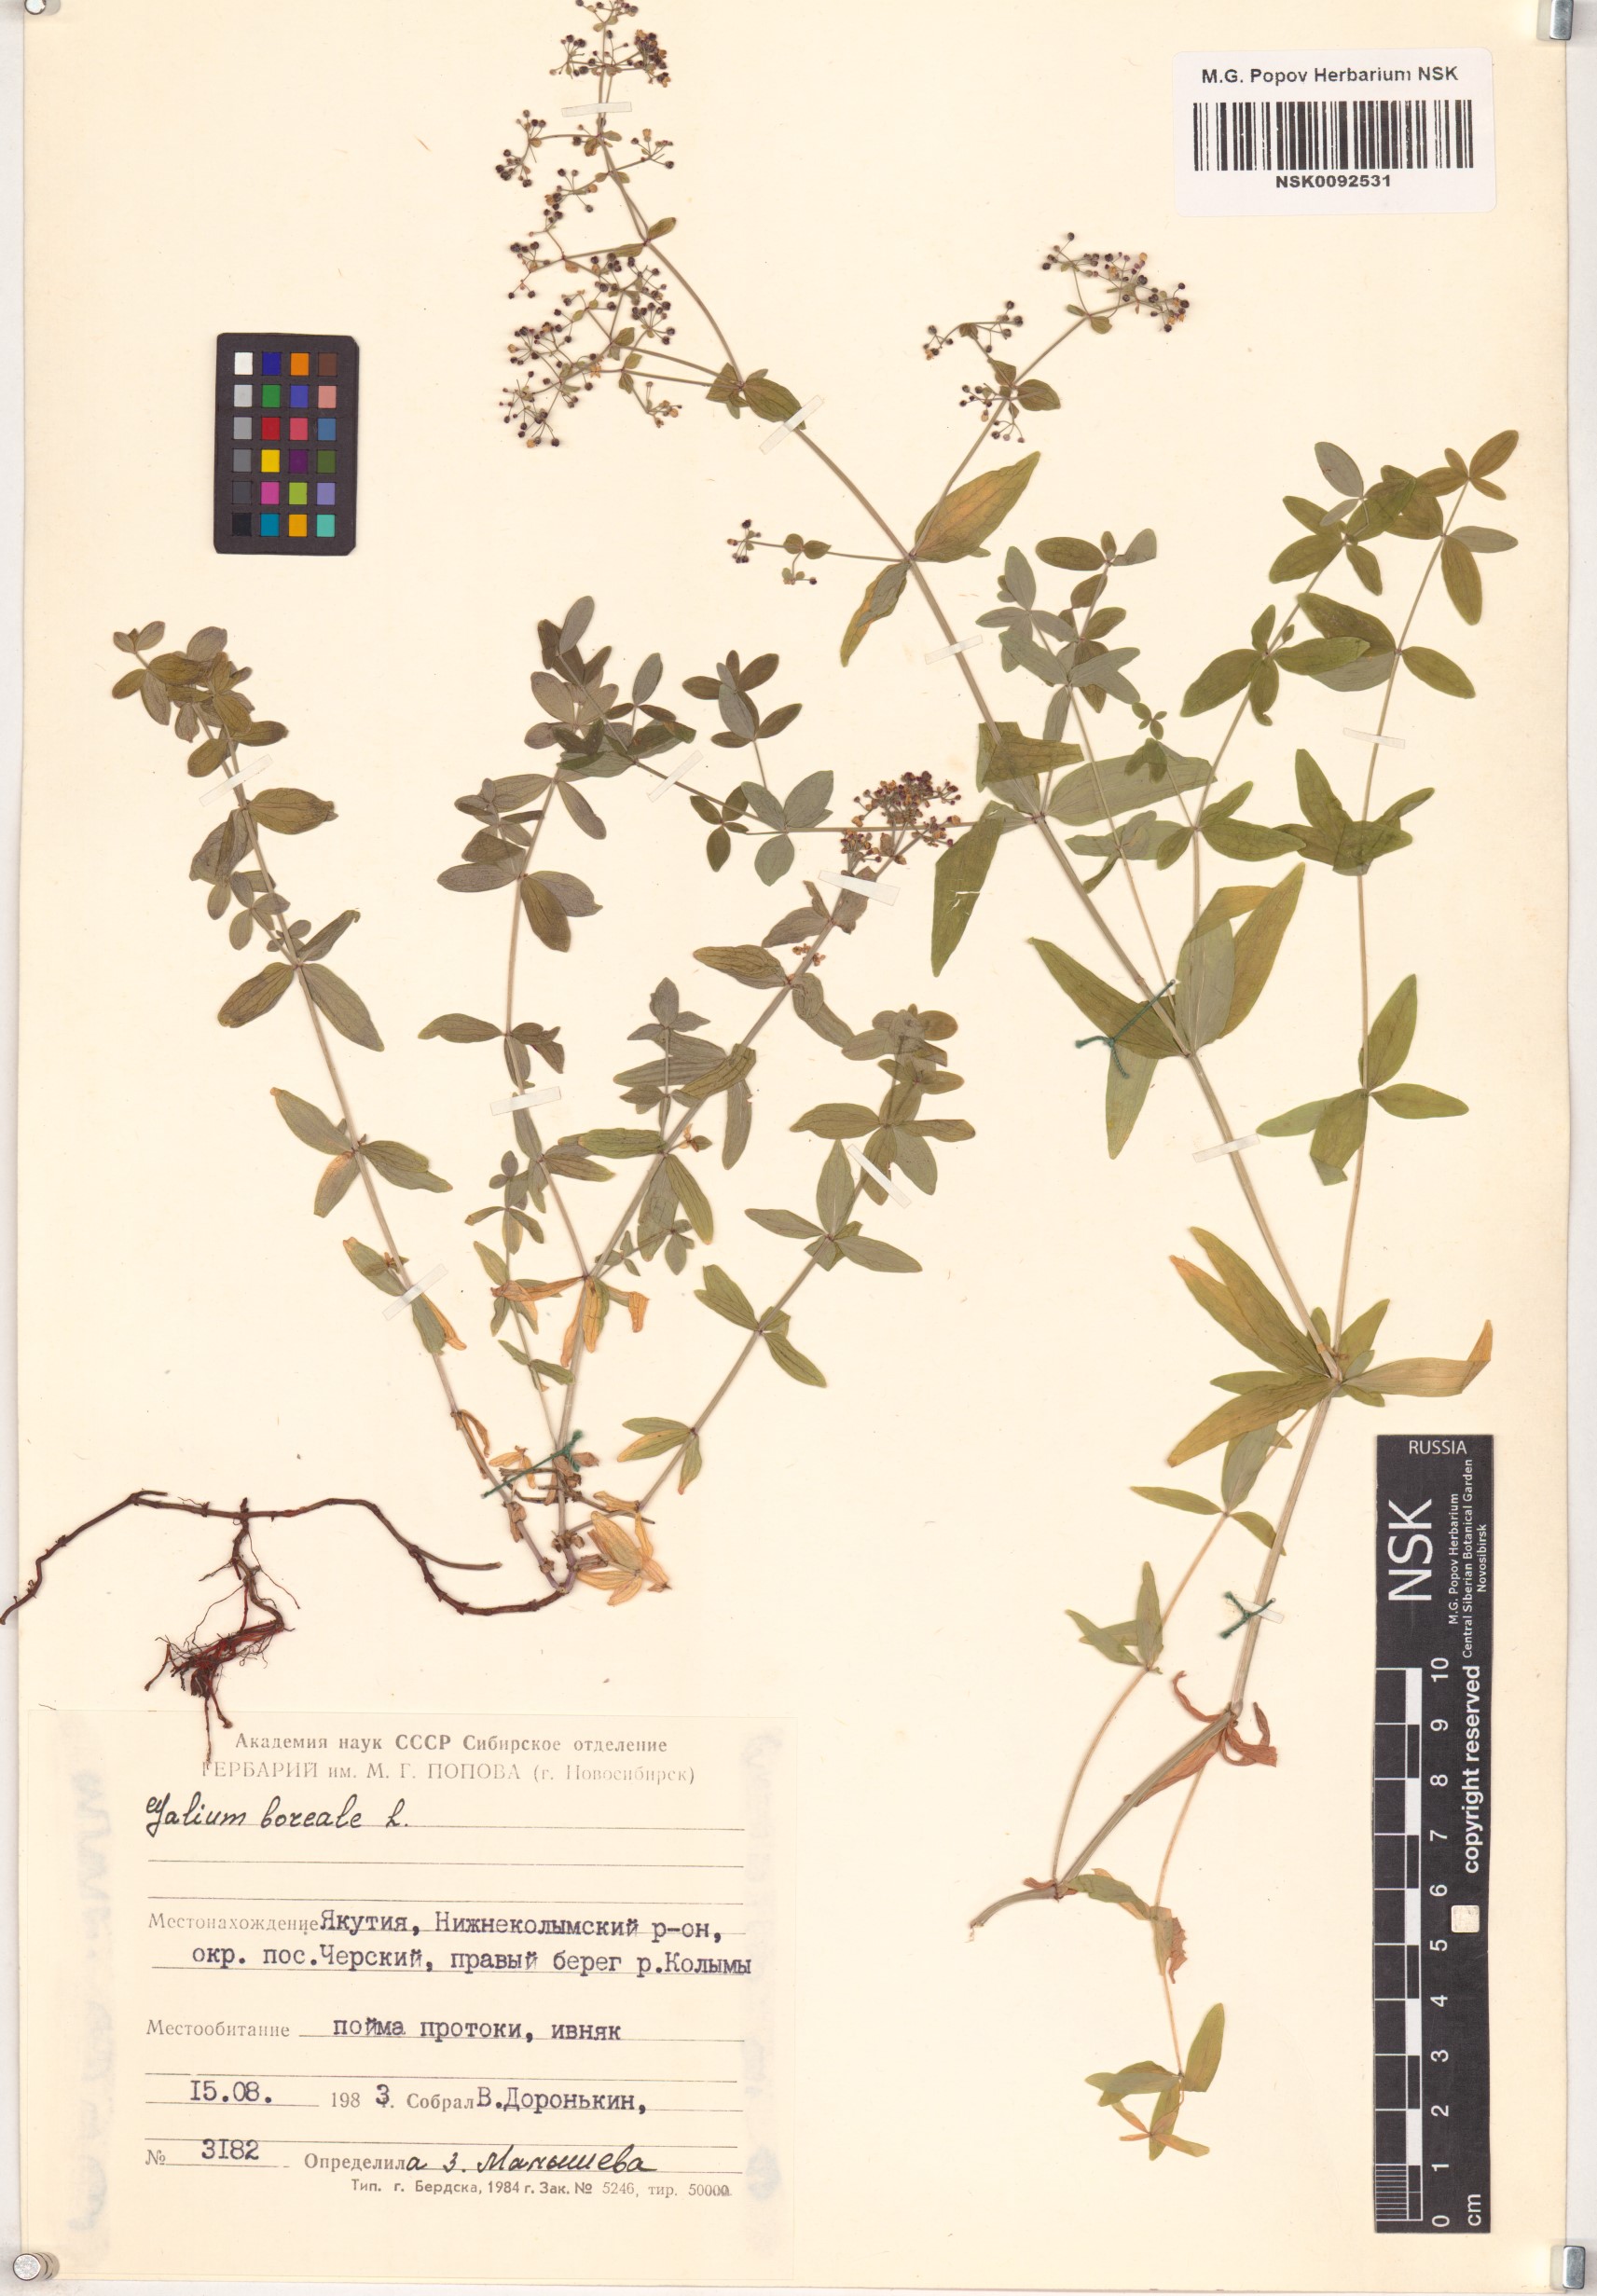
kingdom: Plantae
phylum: Tracheophyta
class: Magnoliopsida
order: Gentianales
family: Rubiaceae
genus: Galium
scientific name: Galium boreale
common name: Northern bedstraw
